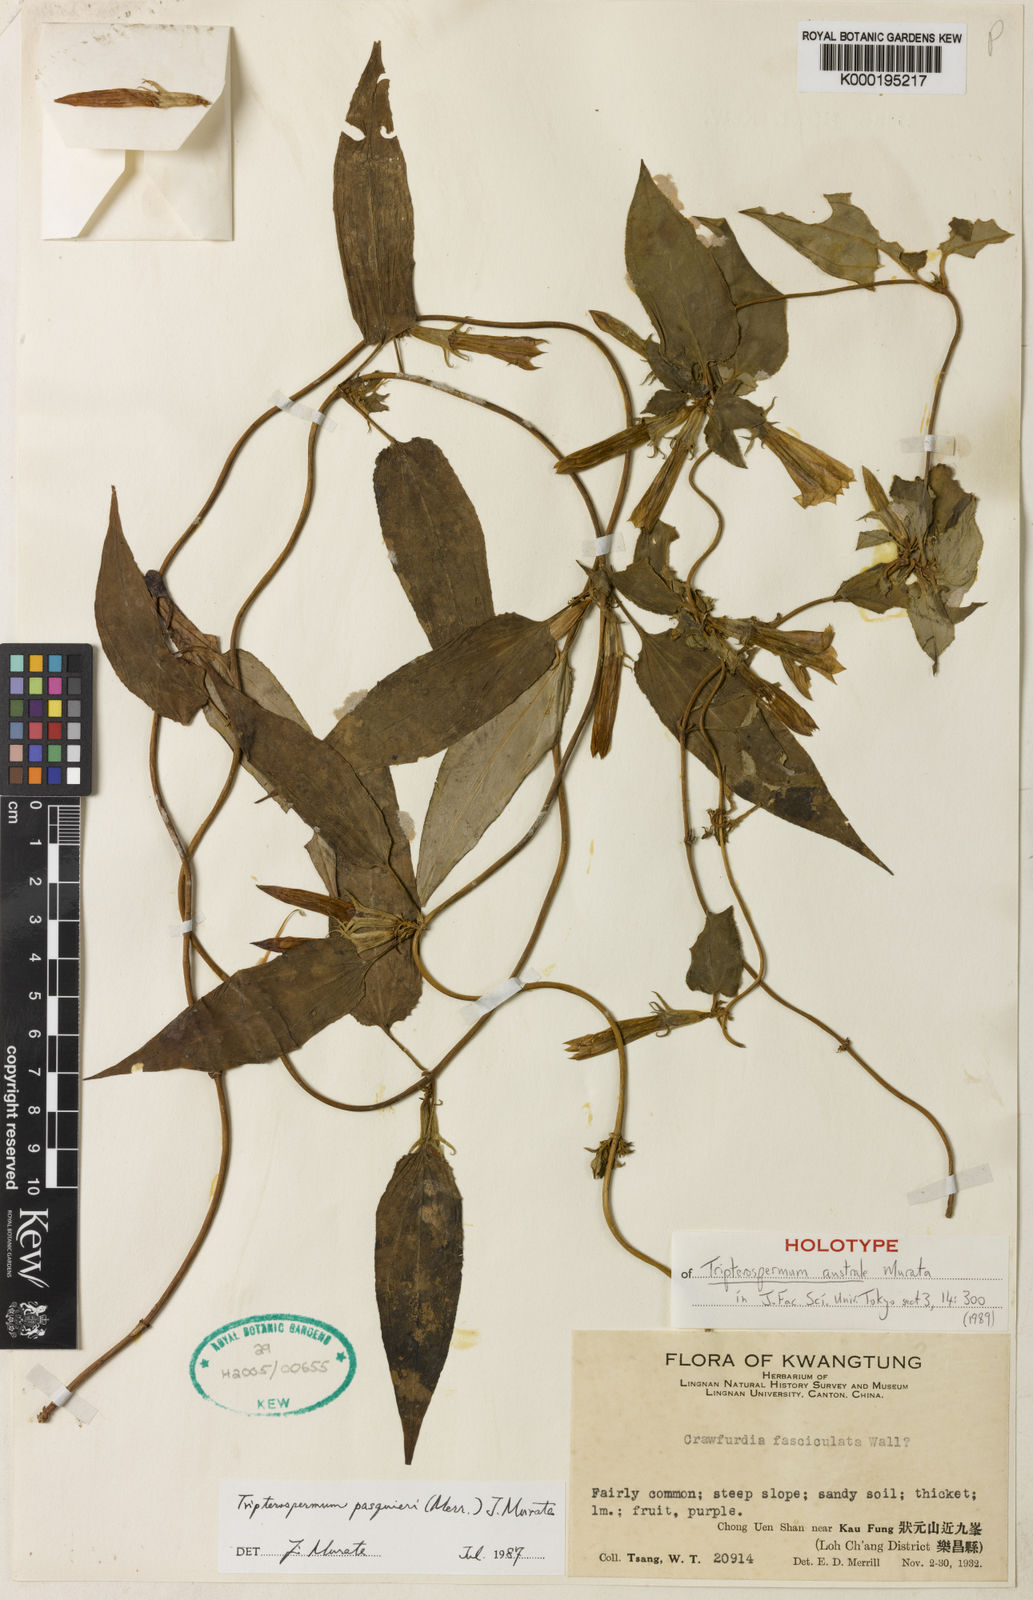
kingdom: Plantae
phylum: Tracheophyta
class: Magnoliopsida
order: Gentianales
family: Gentianaceae
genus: Tripterospermum
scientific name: Tripterospermum australe
